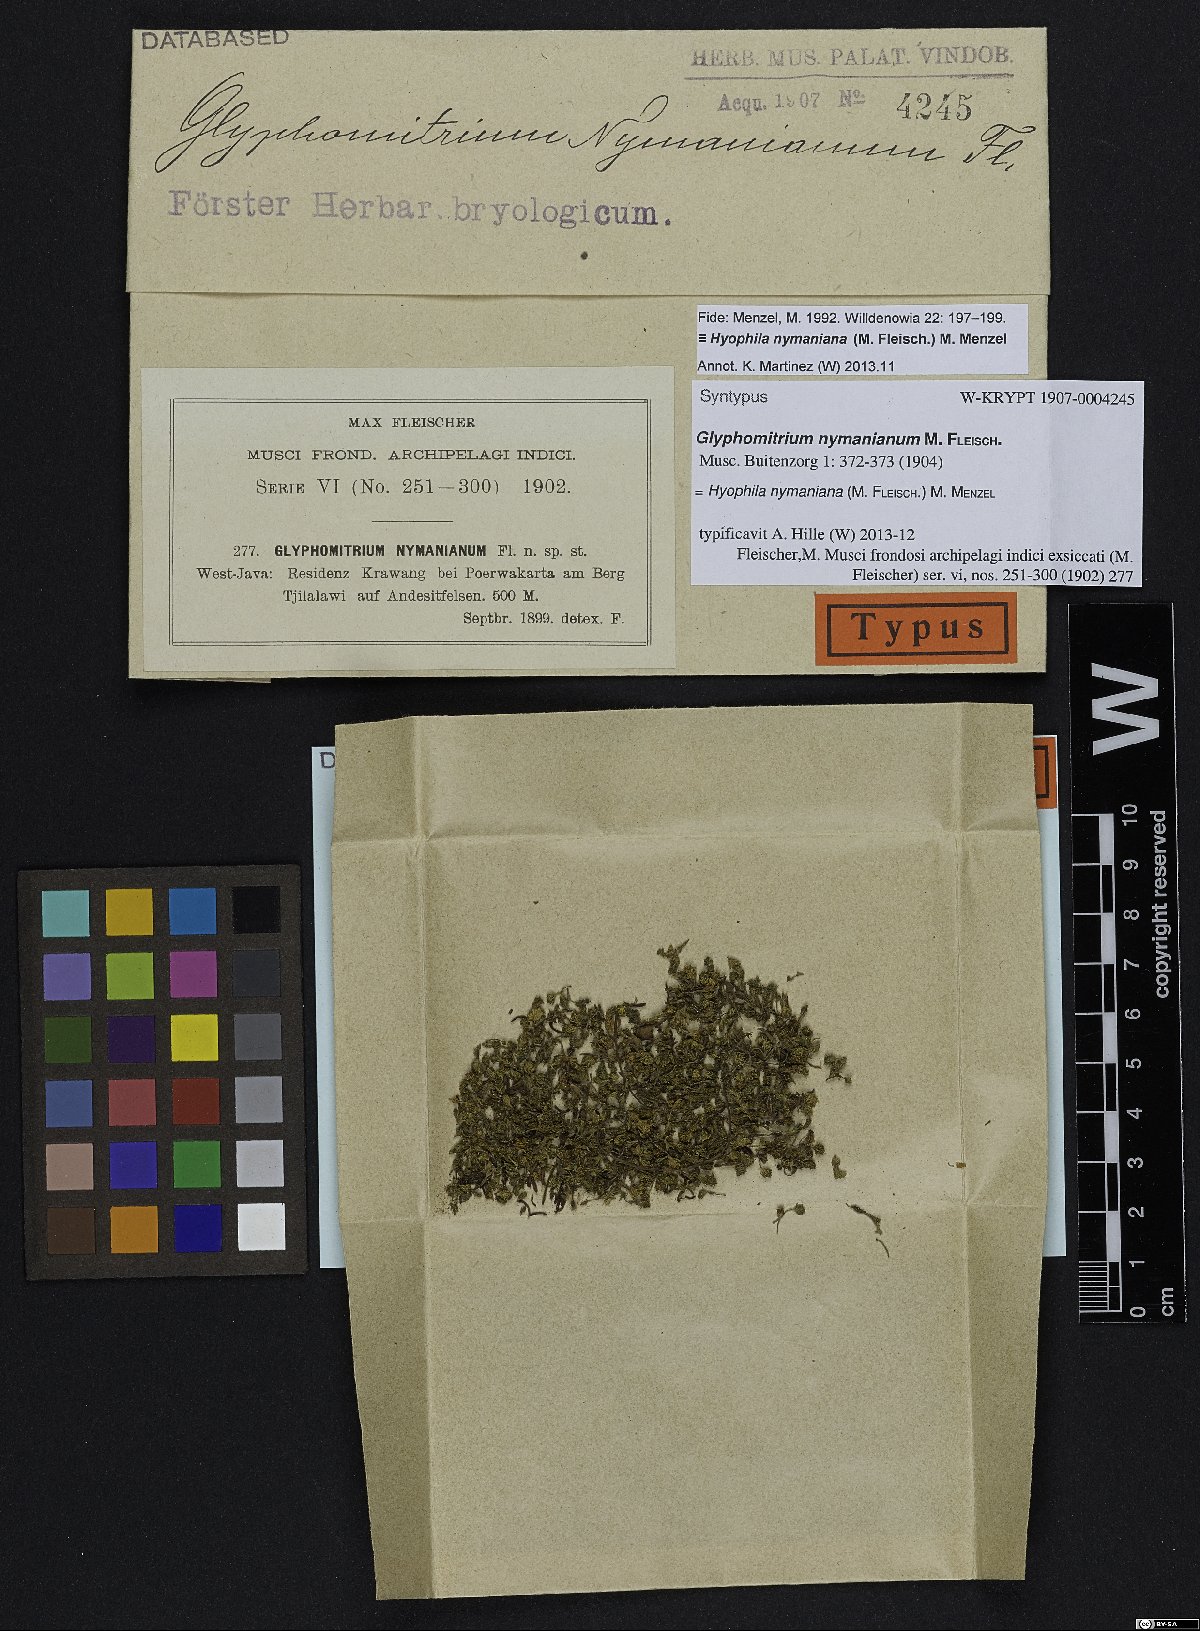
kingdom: Plantae
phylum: Bryophyta
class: Bryopsida
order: Pottiales
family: Pottiaceae
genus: Hyophila
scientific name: Hyophila nymaniana
